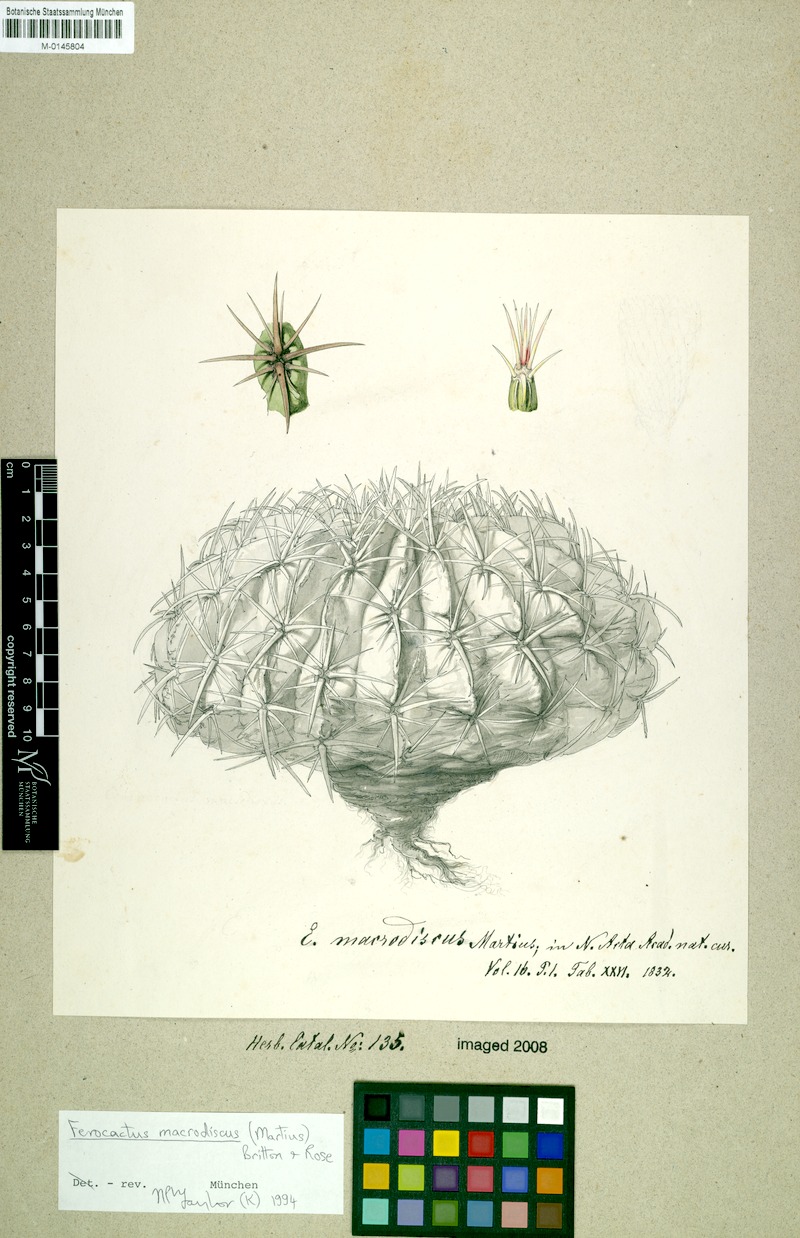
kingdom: Plantae
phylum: Tracheophyta
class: Magnoliopsida
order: Caryophyllales
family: Cactaceae
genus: Ferocactus
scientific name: Ferocactus macrodiscus
